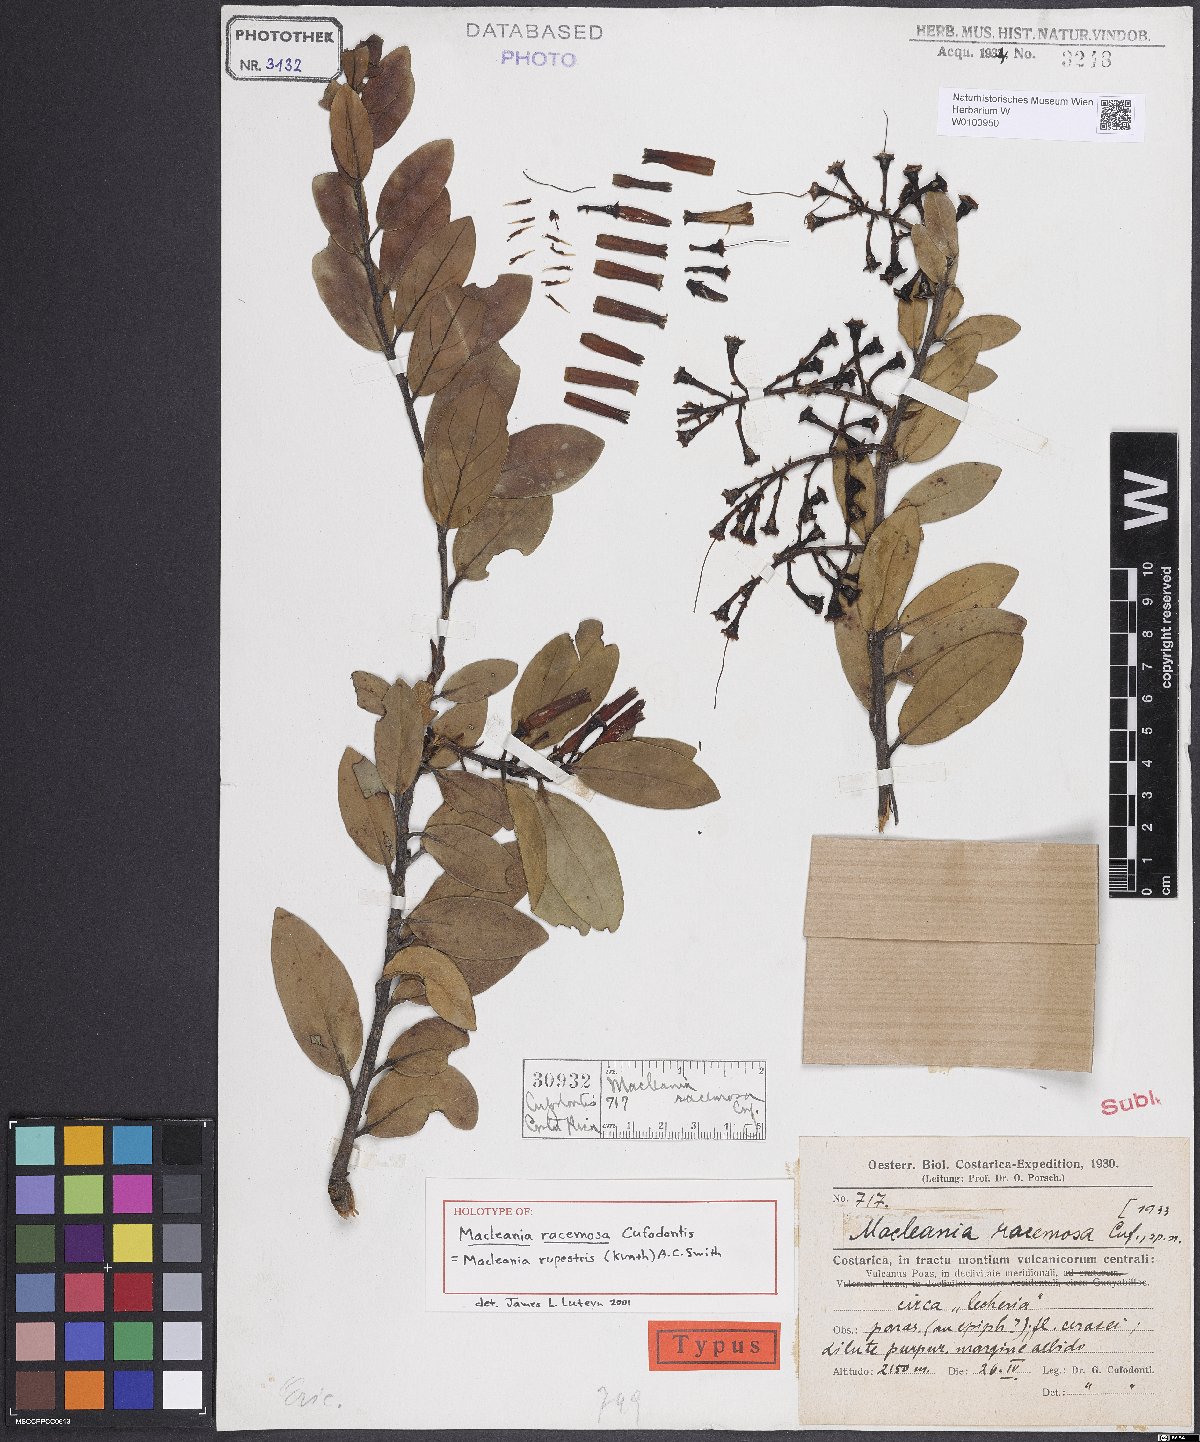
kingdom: Plantae
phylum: Tracheophyta
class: Magnoliopsida
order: Ericales
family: Ericaceae
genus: Macleania
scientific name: Macleania rupestris
